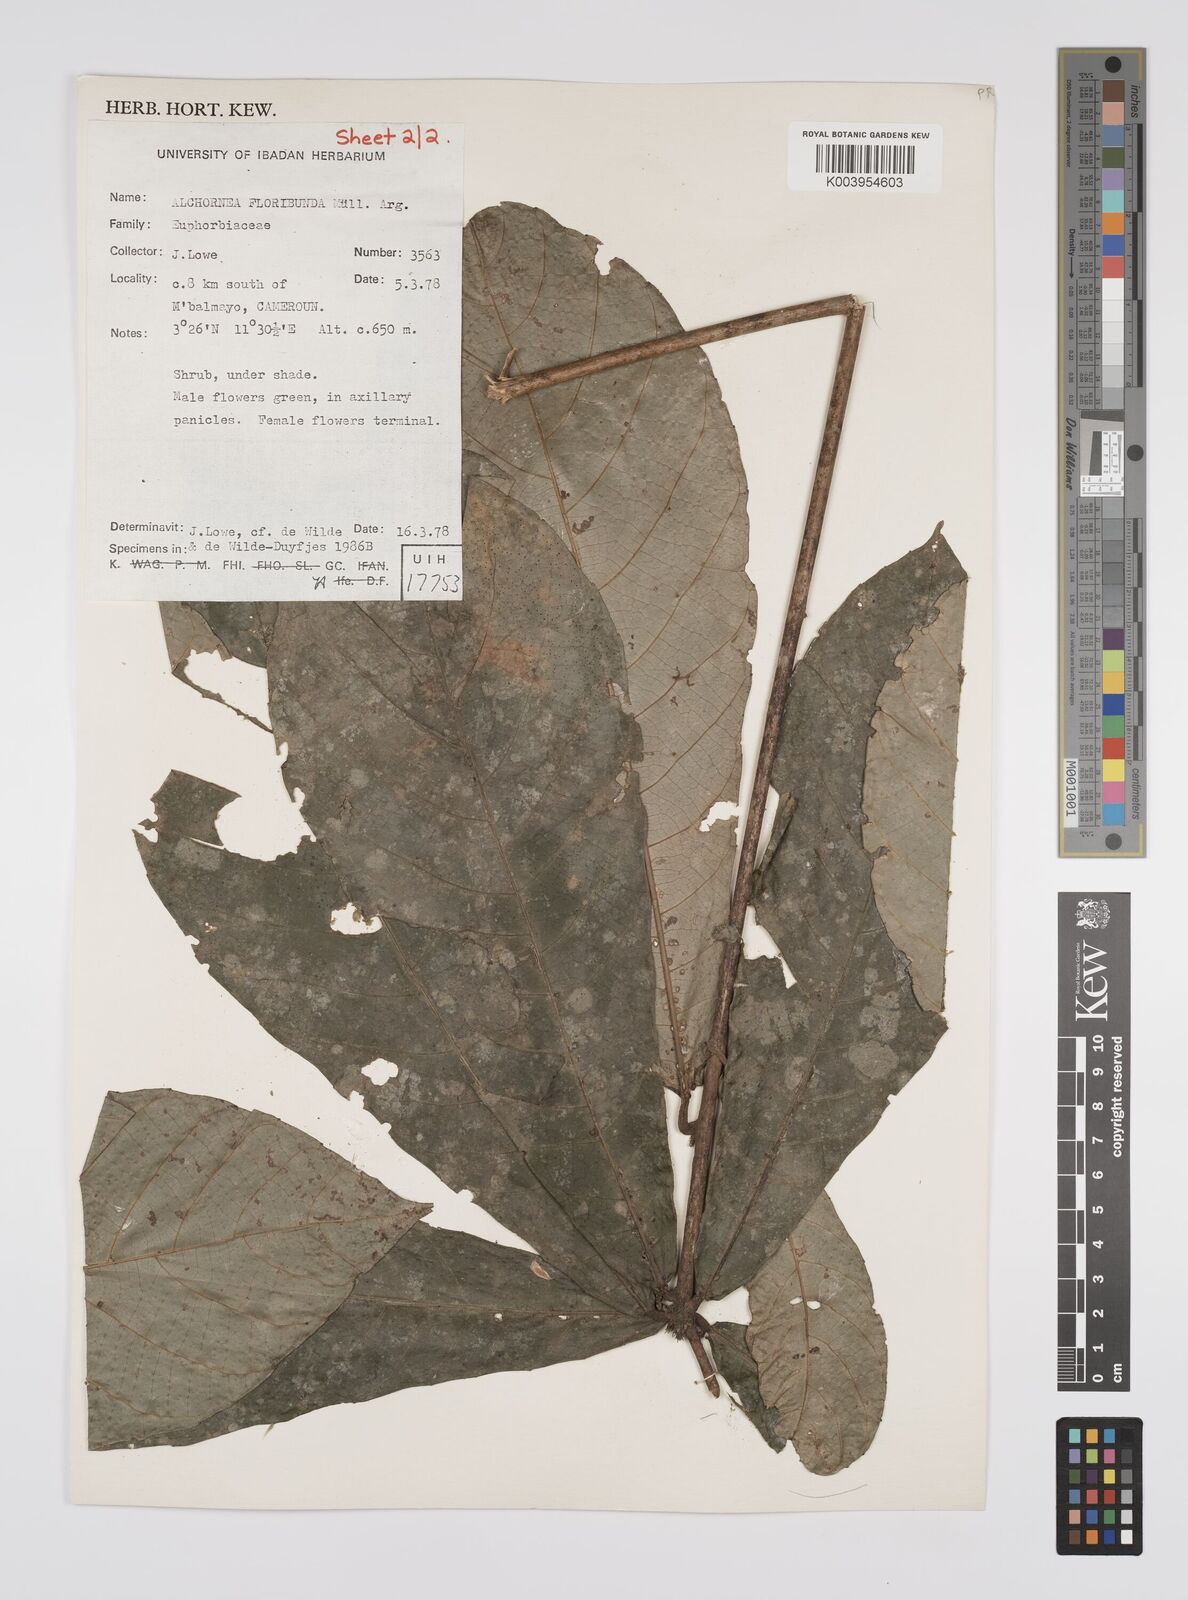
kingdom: Plantae
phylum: Tracheophyta
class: Magnoliopsida
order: Malpighiales
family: Euphorbiaceae
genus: Alchornea
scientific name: Alchornea floribunda
